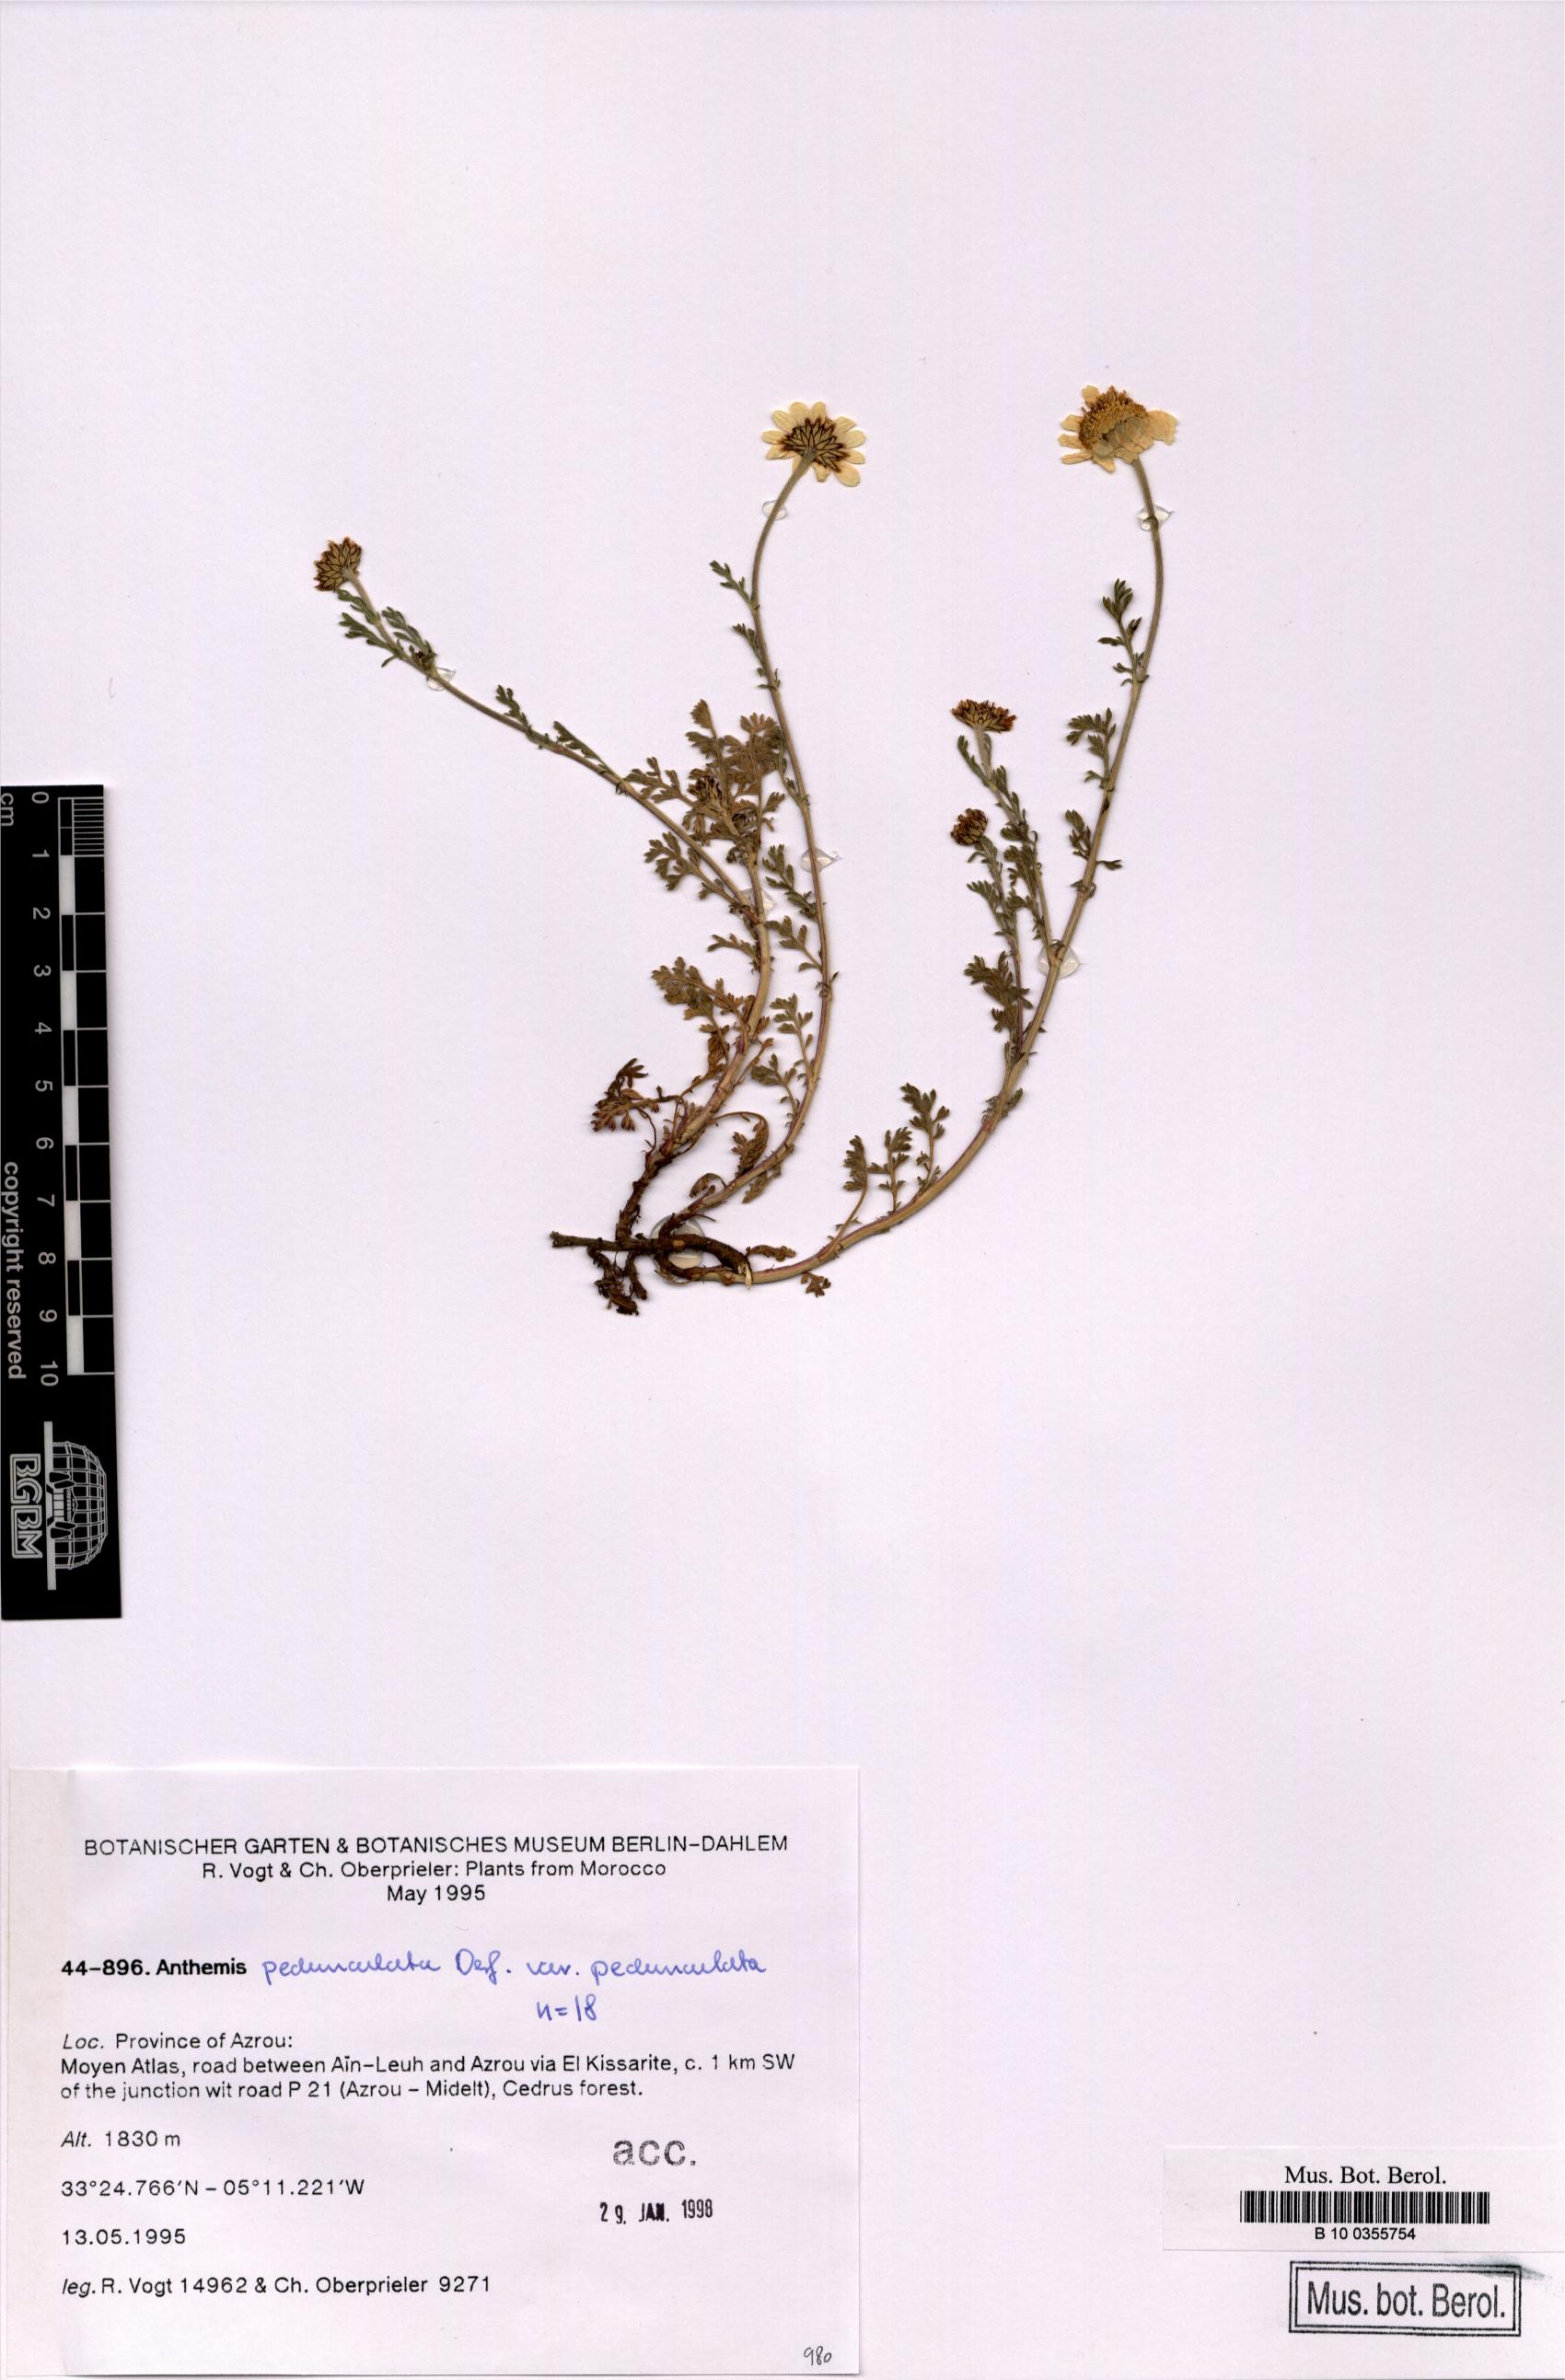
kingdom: Plantae
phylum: Tracheophyta
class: Magnoliopsida
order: Asterales
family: Asteraceae
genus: Anthemis
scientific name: Anthemis pedunculata
